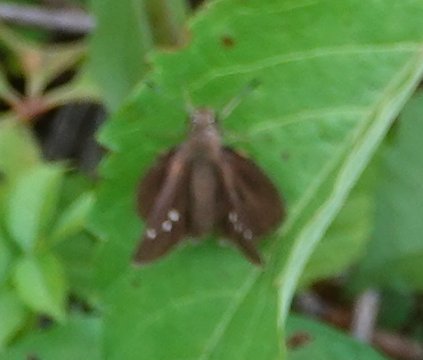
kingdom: Animalia
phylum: Arthropoda
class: Insecta
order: Lepidoptera
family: Hesperiidae
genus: Vernia
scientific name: Vernia verna
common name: Little Glassywing
